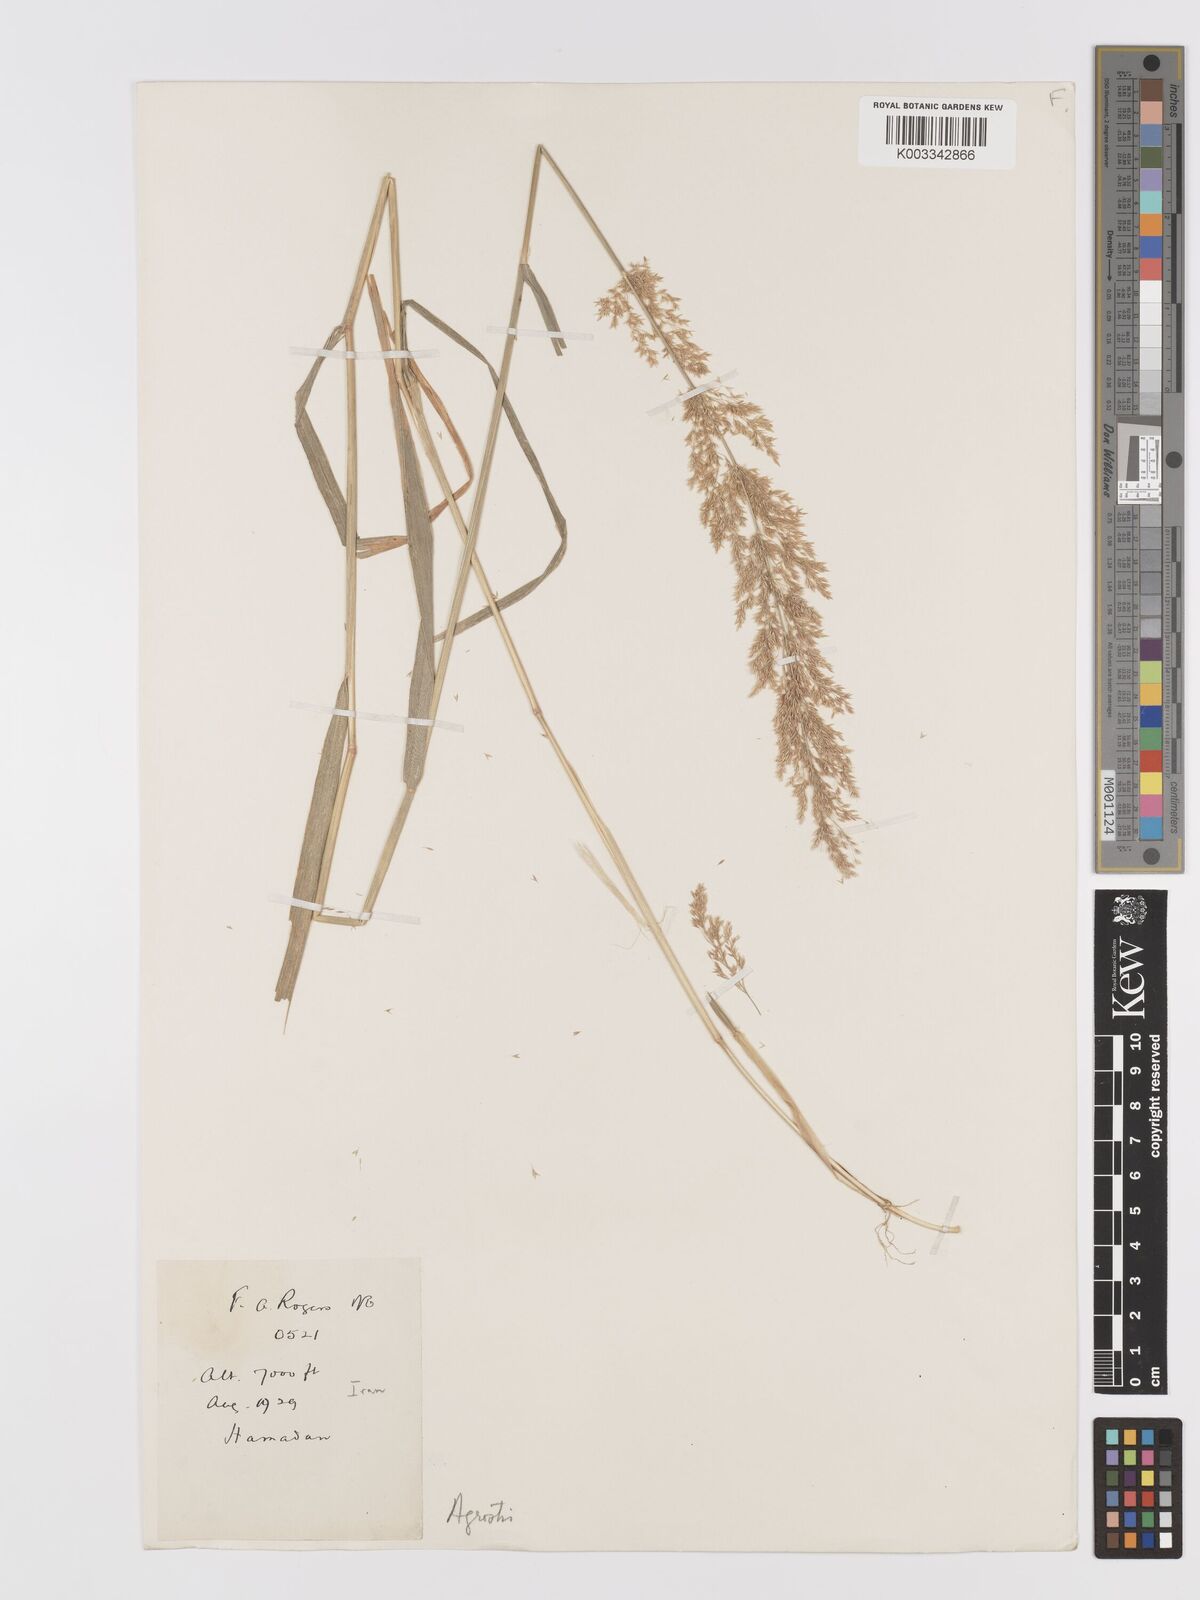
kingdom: Plantae
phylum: Tracheophyta
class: Liliopsida
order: Poales
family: Poaceae
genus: Agrostis
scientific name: Agrostis
